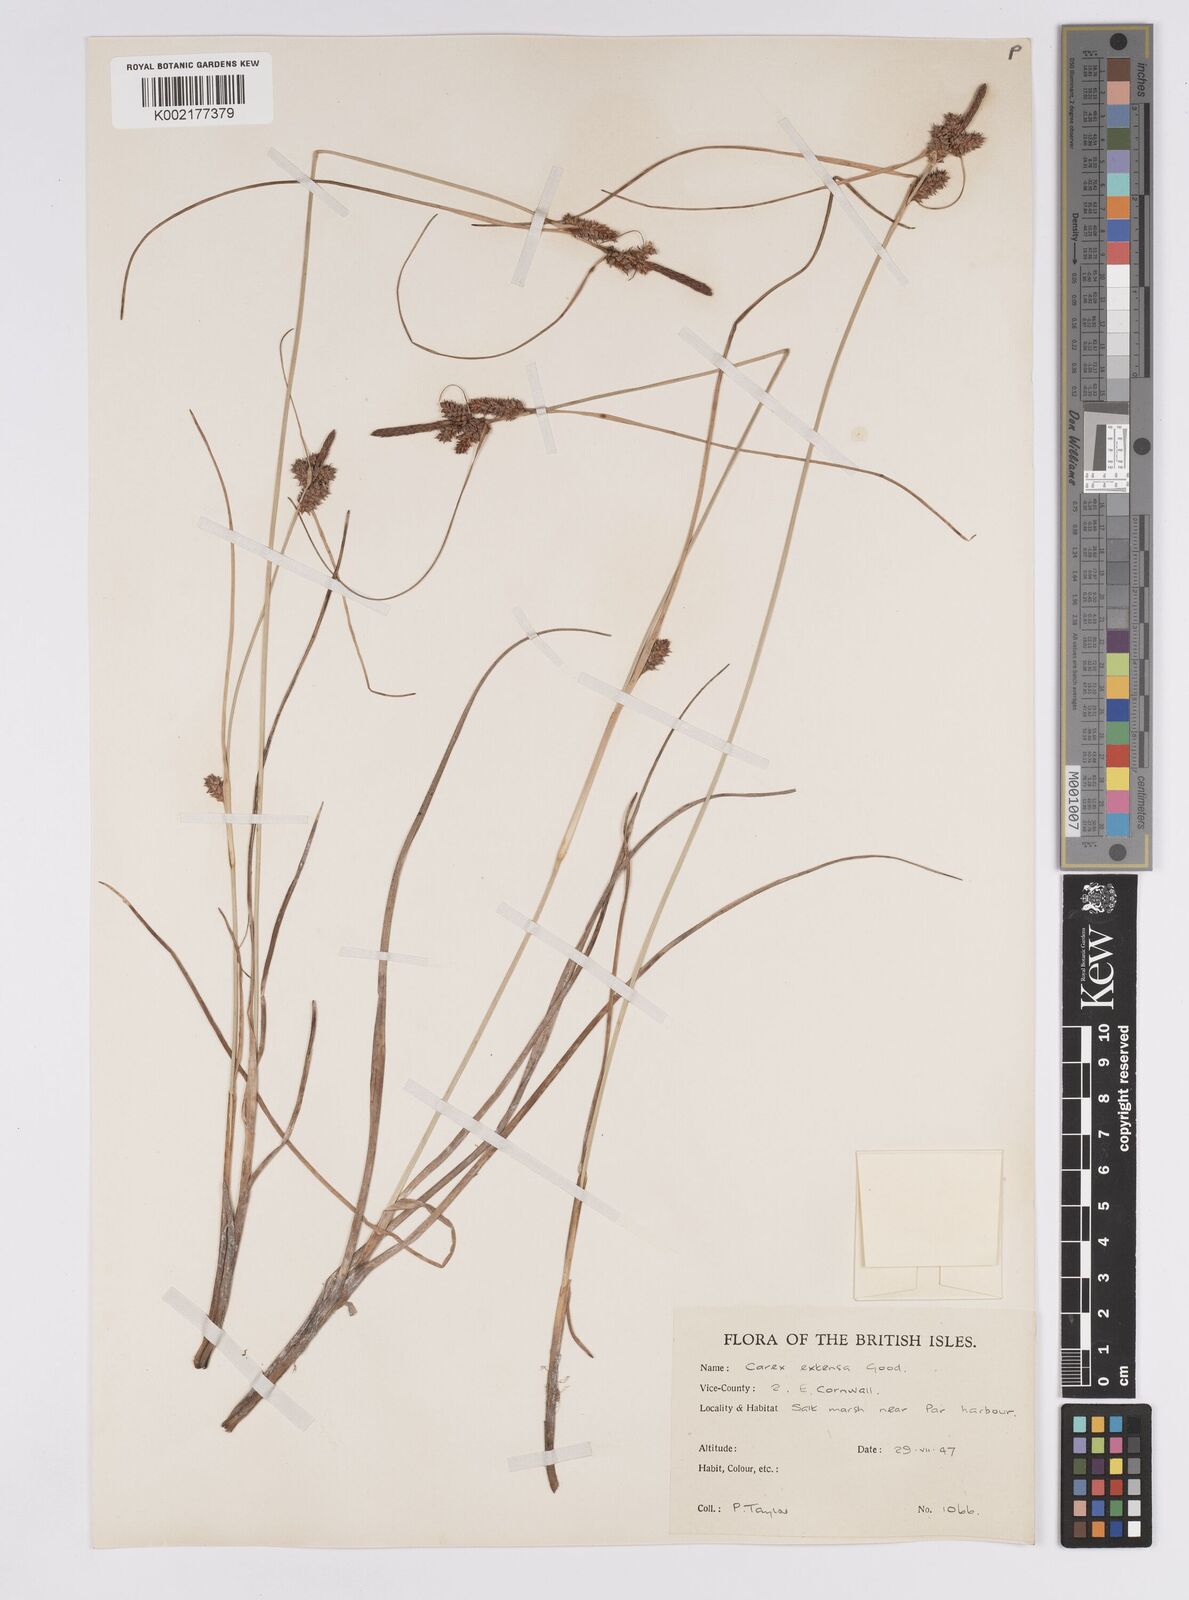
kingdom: Plantae
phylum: Tracheophyta
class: Liliopsida
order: Poales
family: Cyperaceae
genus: Carex
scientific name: Carex extensa
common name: Long-bracted sedge
